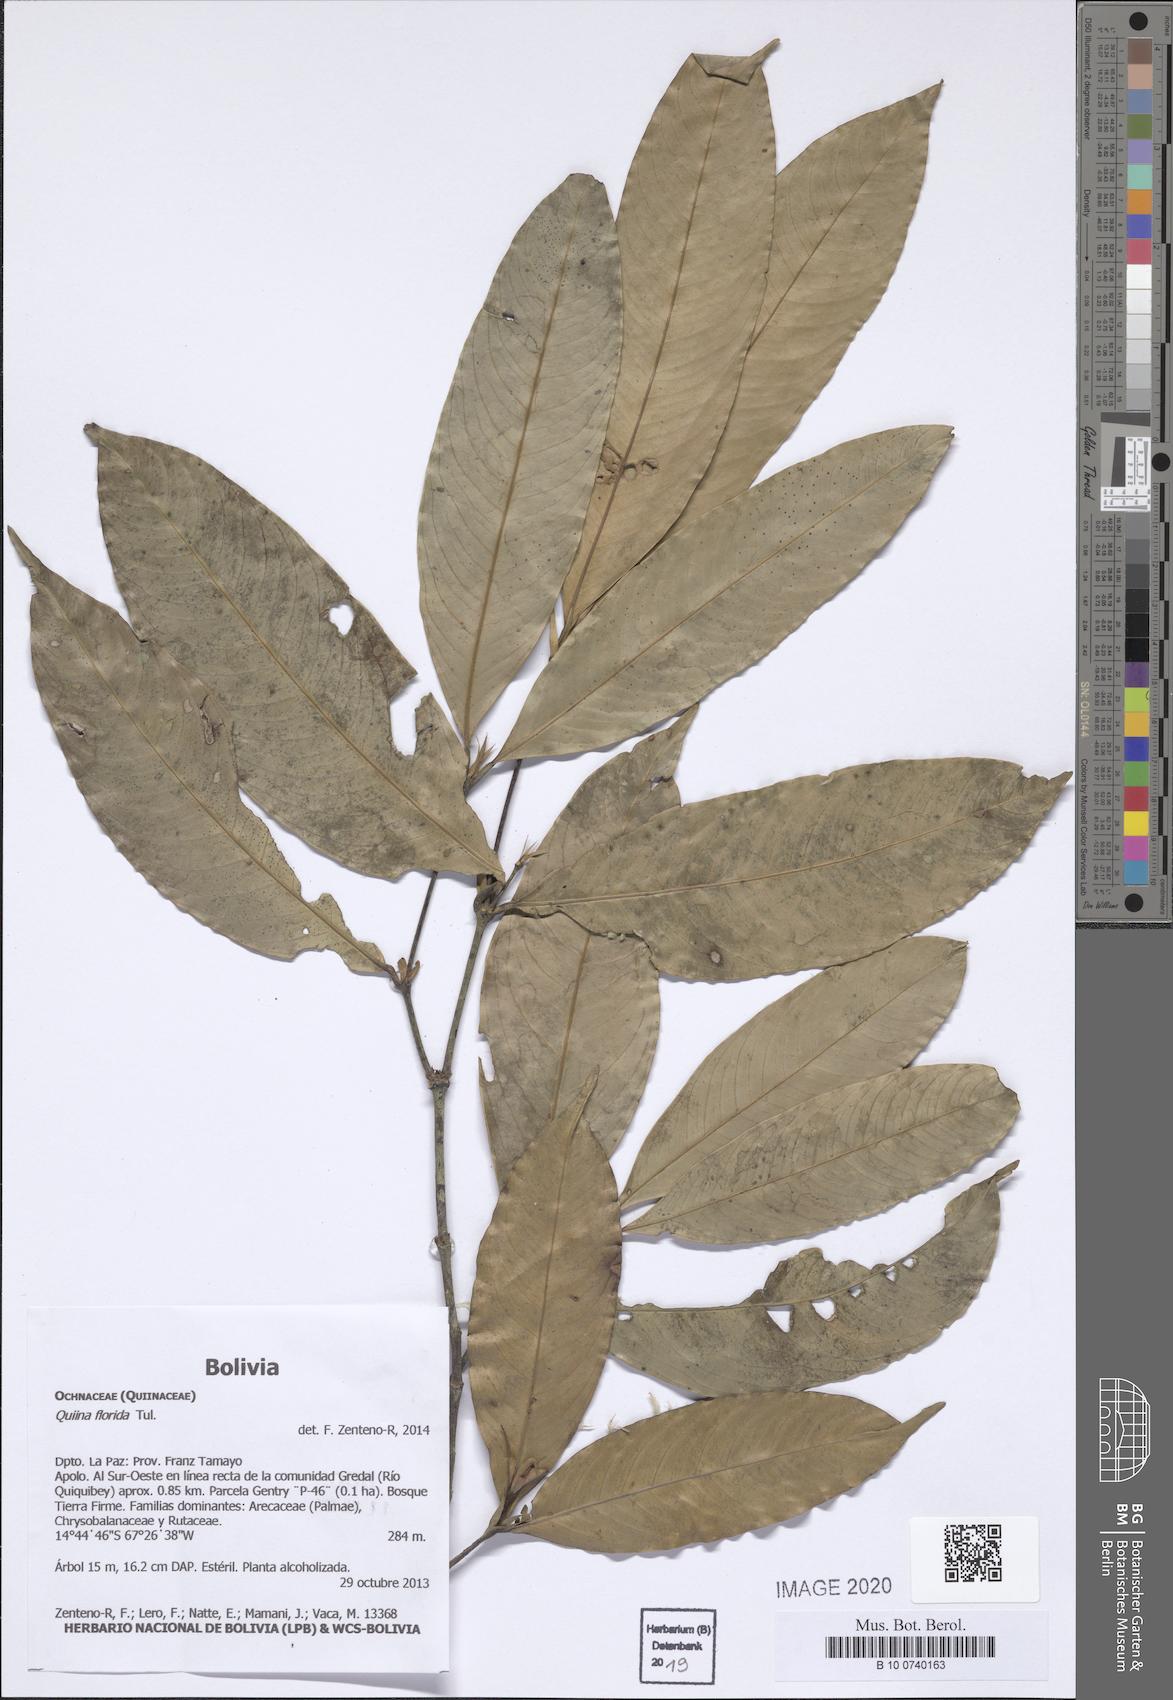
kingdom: Plantae
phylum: Tracheophyta
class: Magnoliopsida
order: Malpighiales
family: Quiinaceae
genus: Quiina
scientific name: Quiina florida
